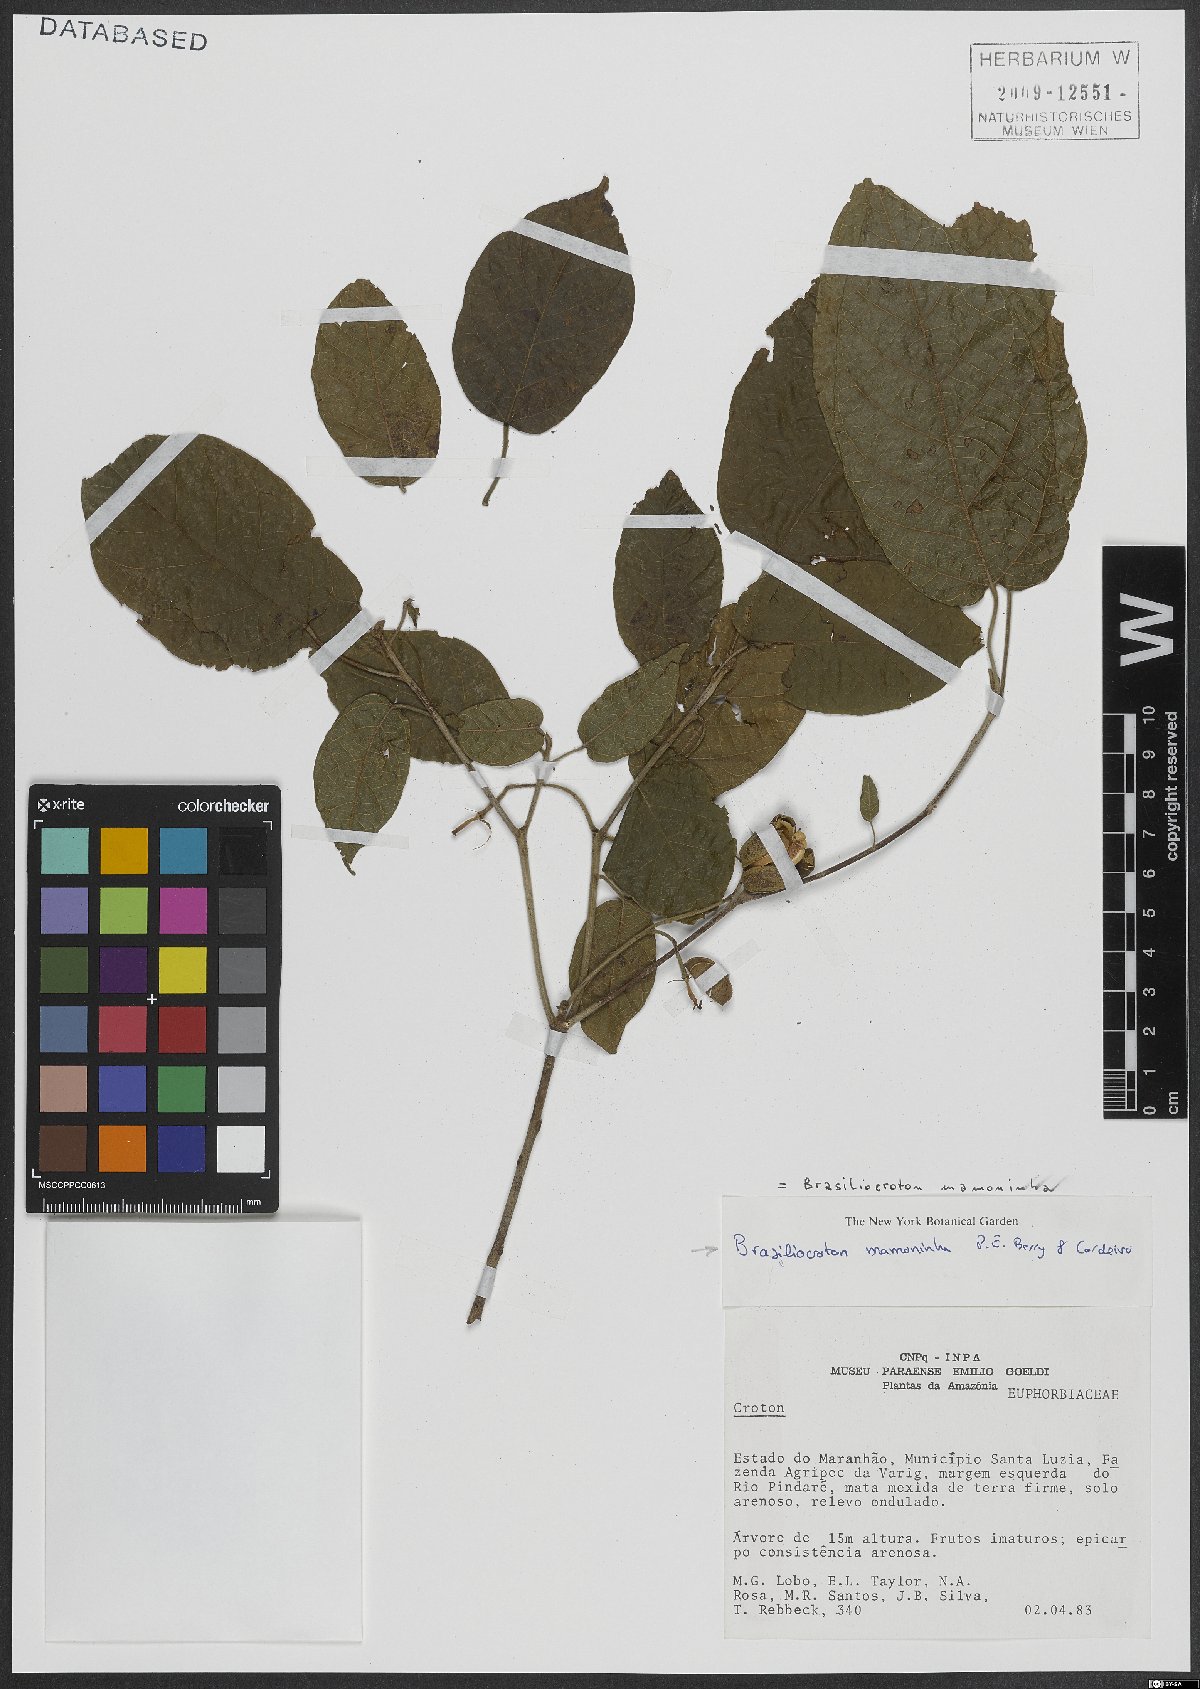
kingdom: Plantae
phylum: Tracheophyta
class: Magnoliopsida
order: Malpighiales
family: Euphorbiaceae
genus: Brasiliocroton
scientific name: Brasiliocroton mamoninha
